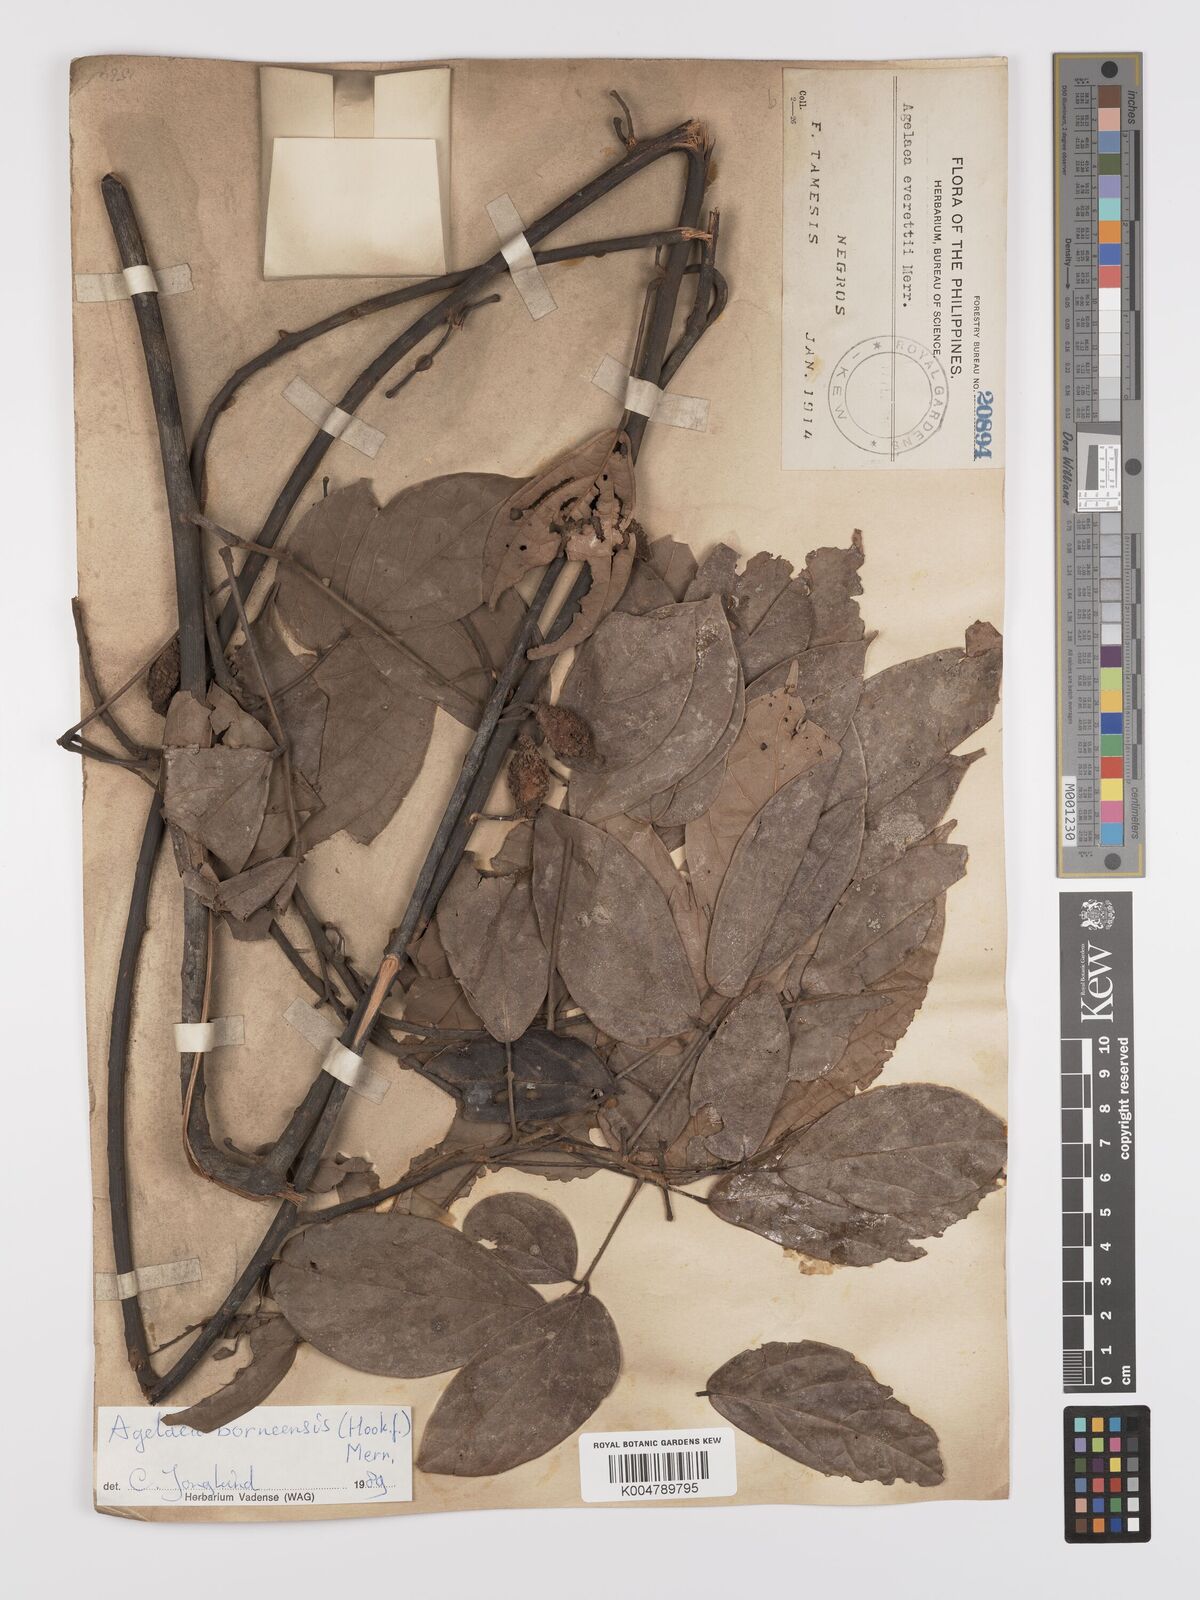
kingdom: Plantae
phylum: Tracheophyta
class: Magnoliopsida
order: Oxalidales
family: Connaraceae
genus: Agelaea
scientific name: Agelaea borneensis
